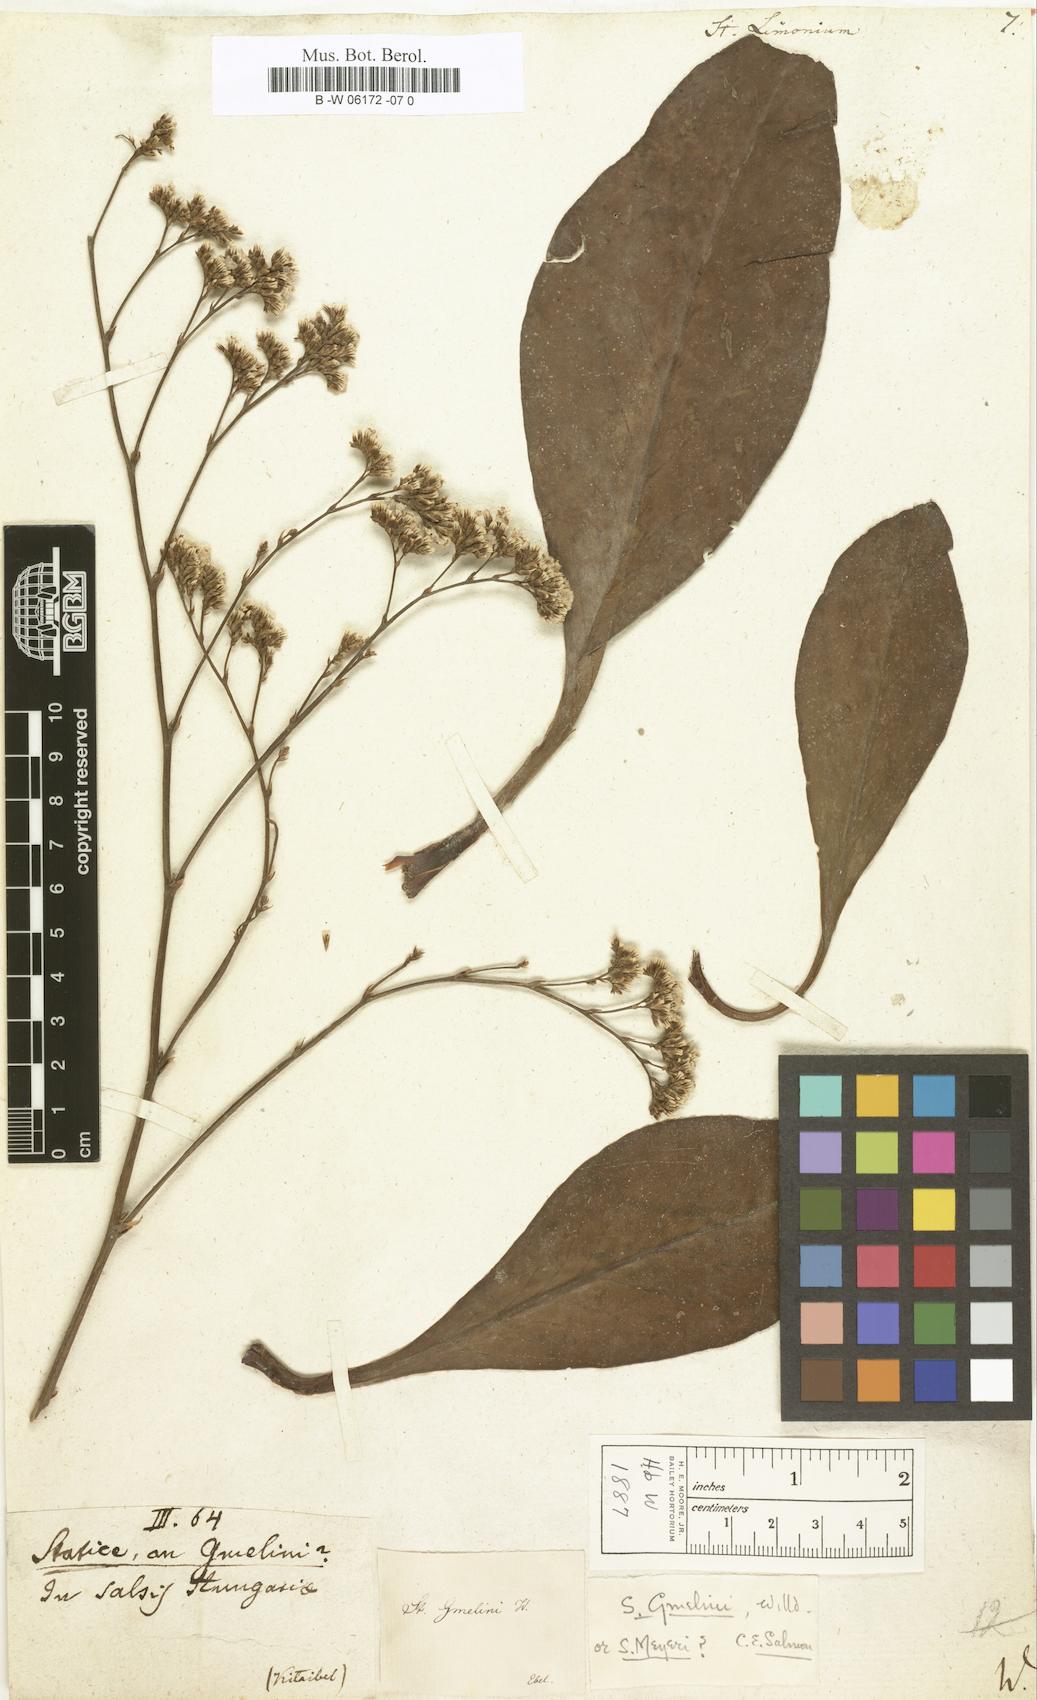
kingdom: Plantae
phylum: Tracheophyta
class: Magnoliopsida
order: Caryophyllales
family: Plumbaginaceae
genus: Limonium
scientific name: Limonium vulgare
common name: Common sea-lavender
